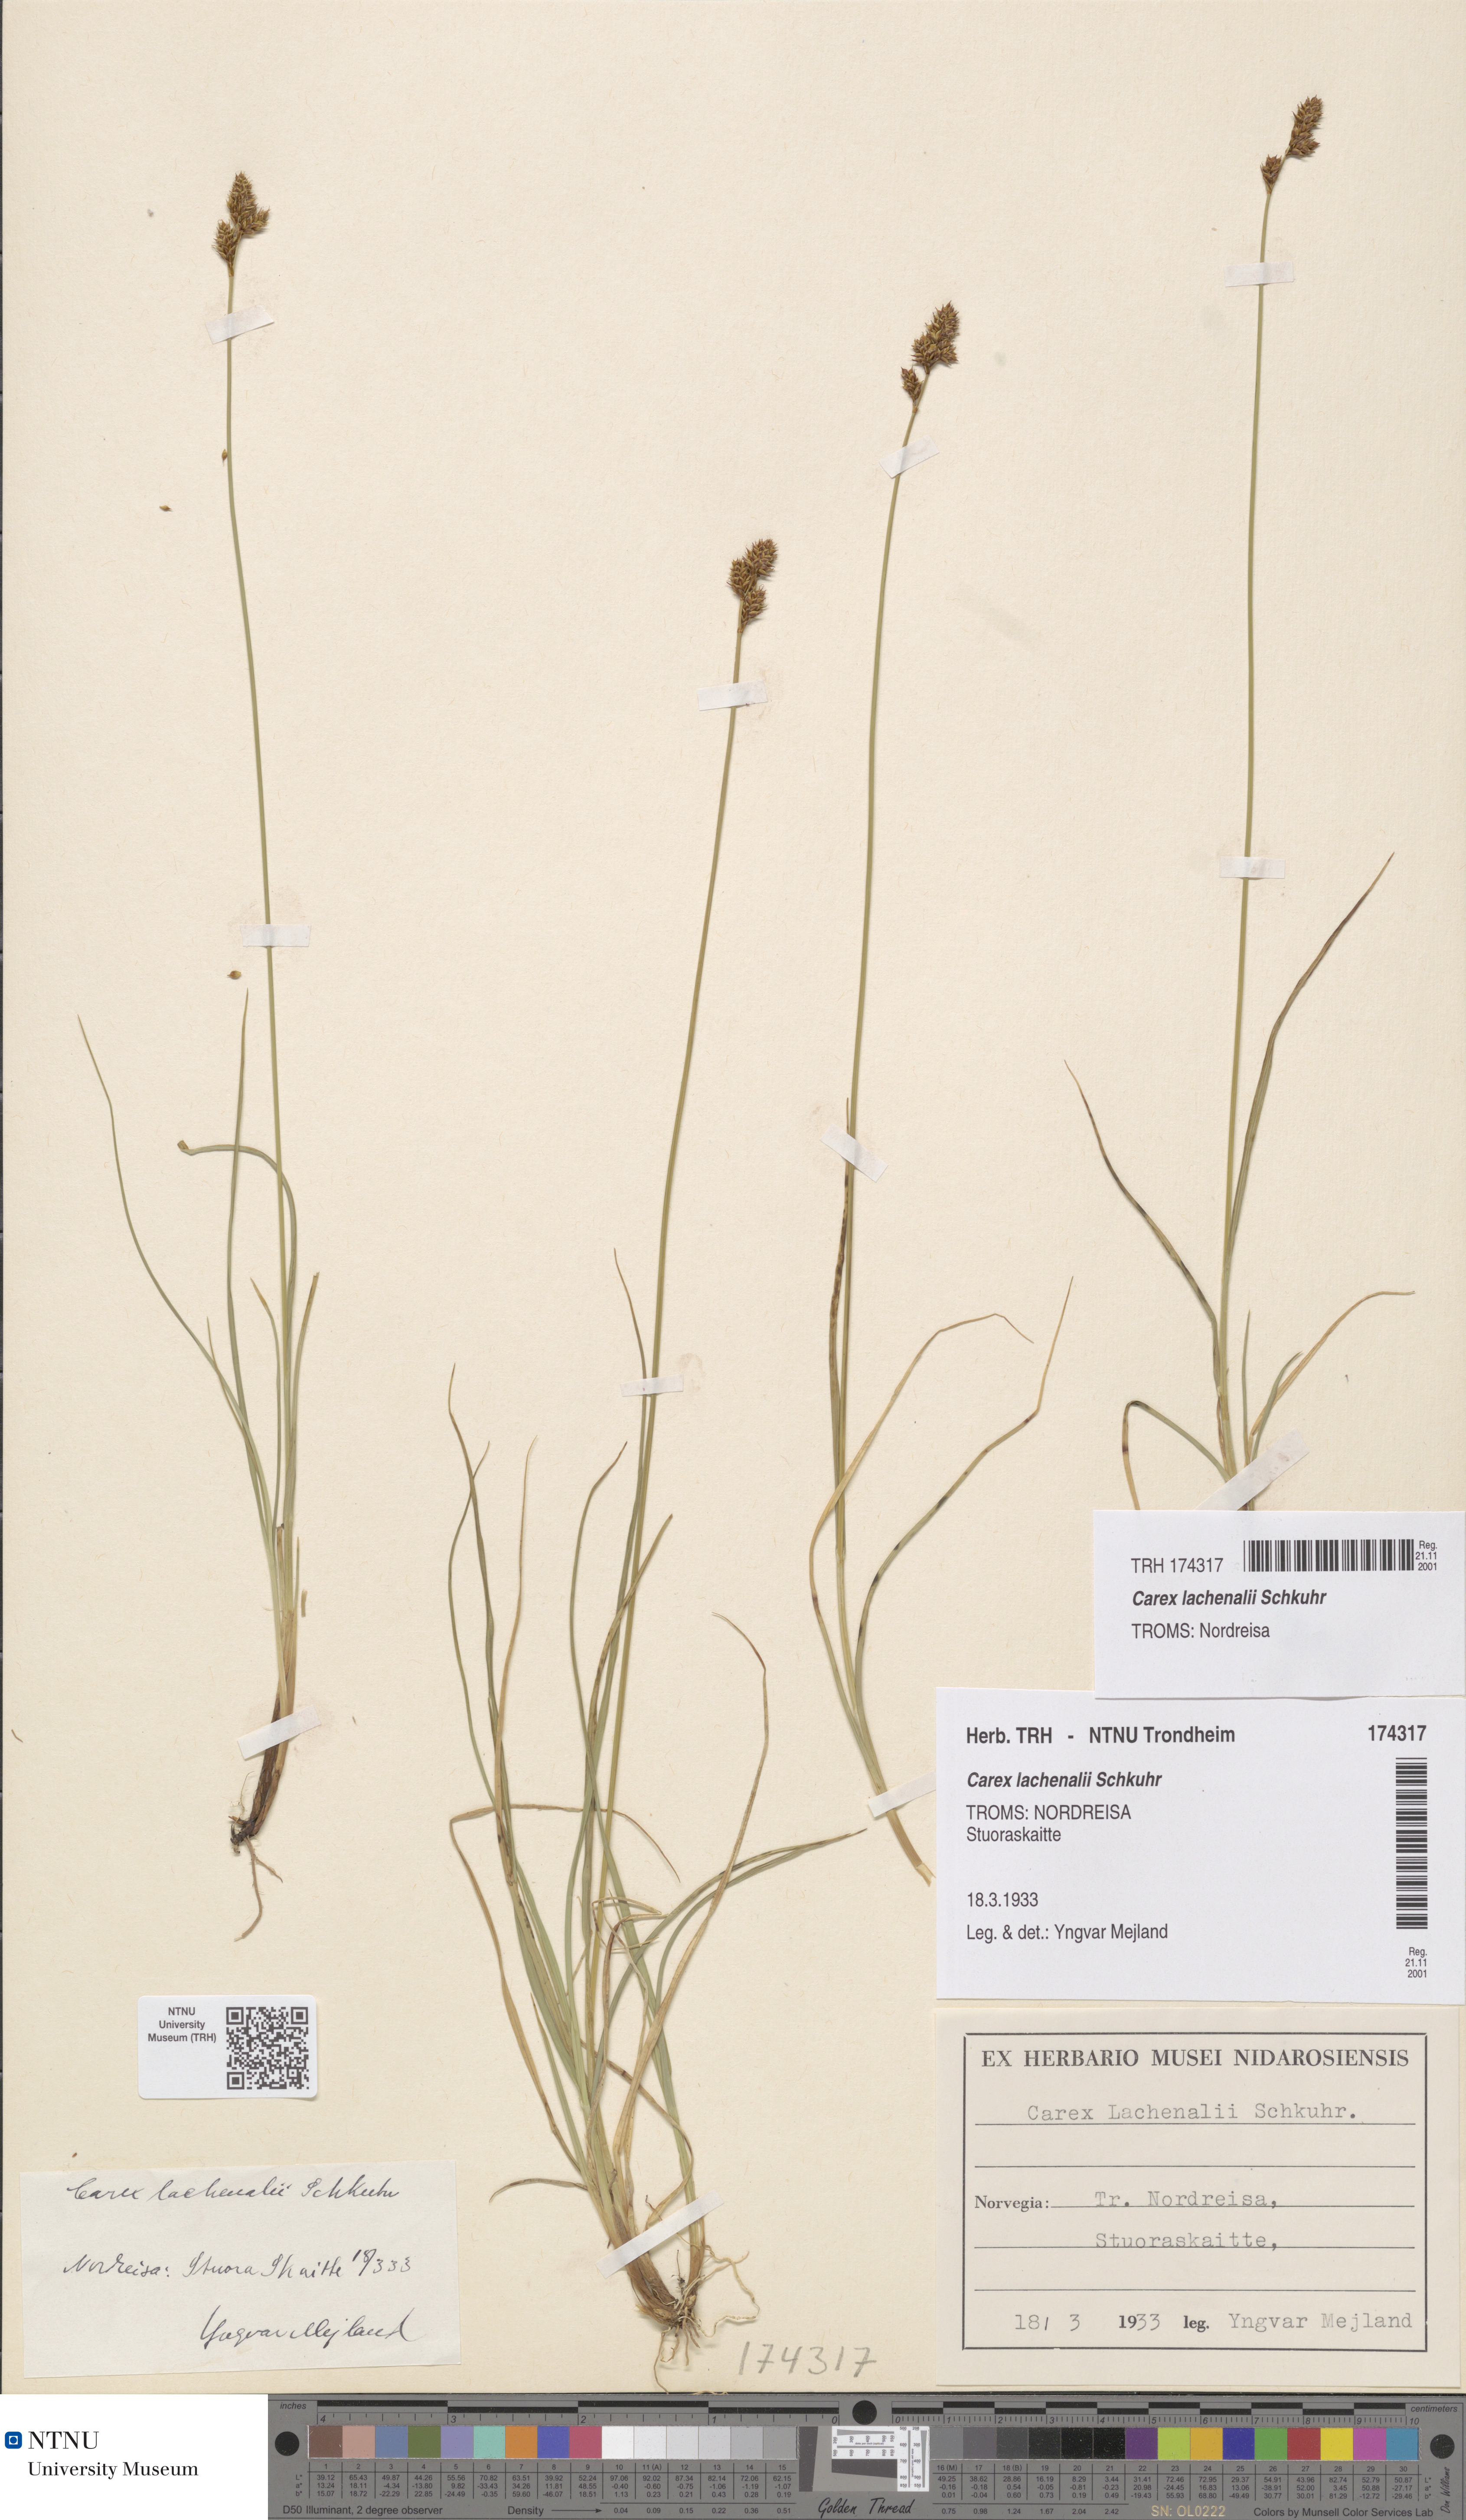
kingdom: Plantae
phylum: Tracheophyta
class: Liliopsida
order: Poales
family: Cyperaceae
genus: Carex
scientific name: Carex lachenalii
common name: Hare's-foot sedge
